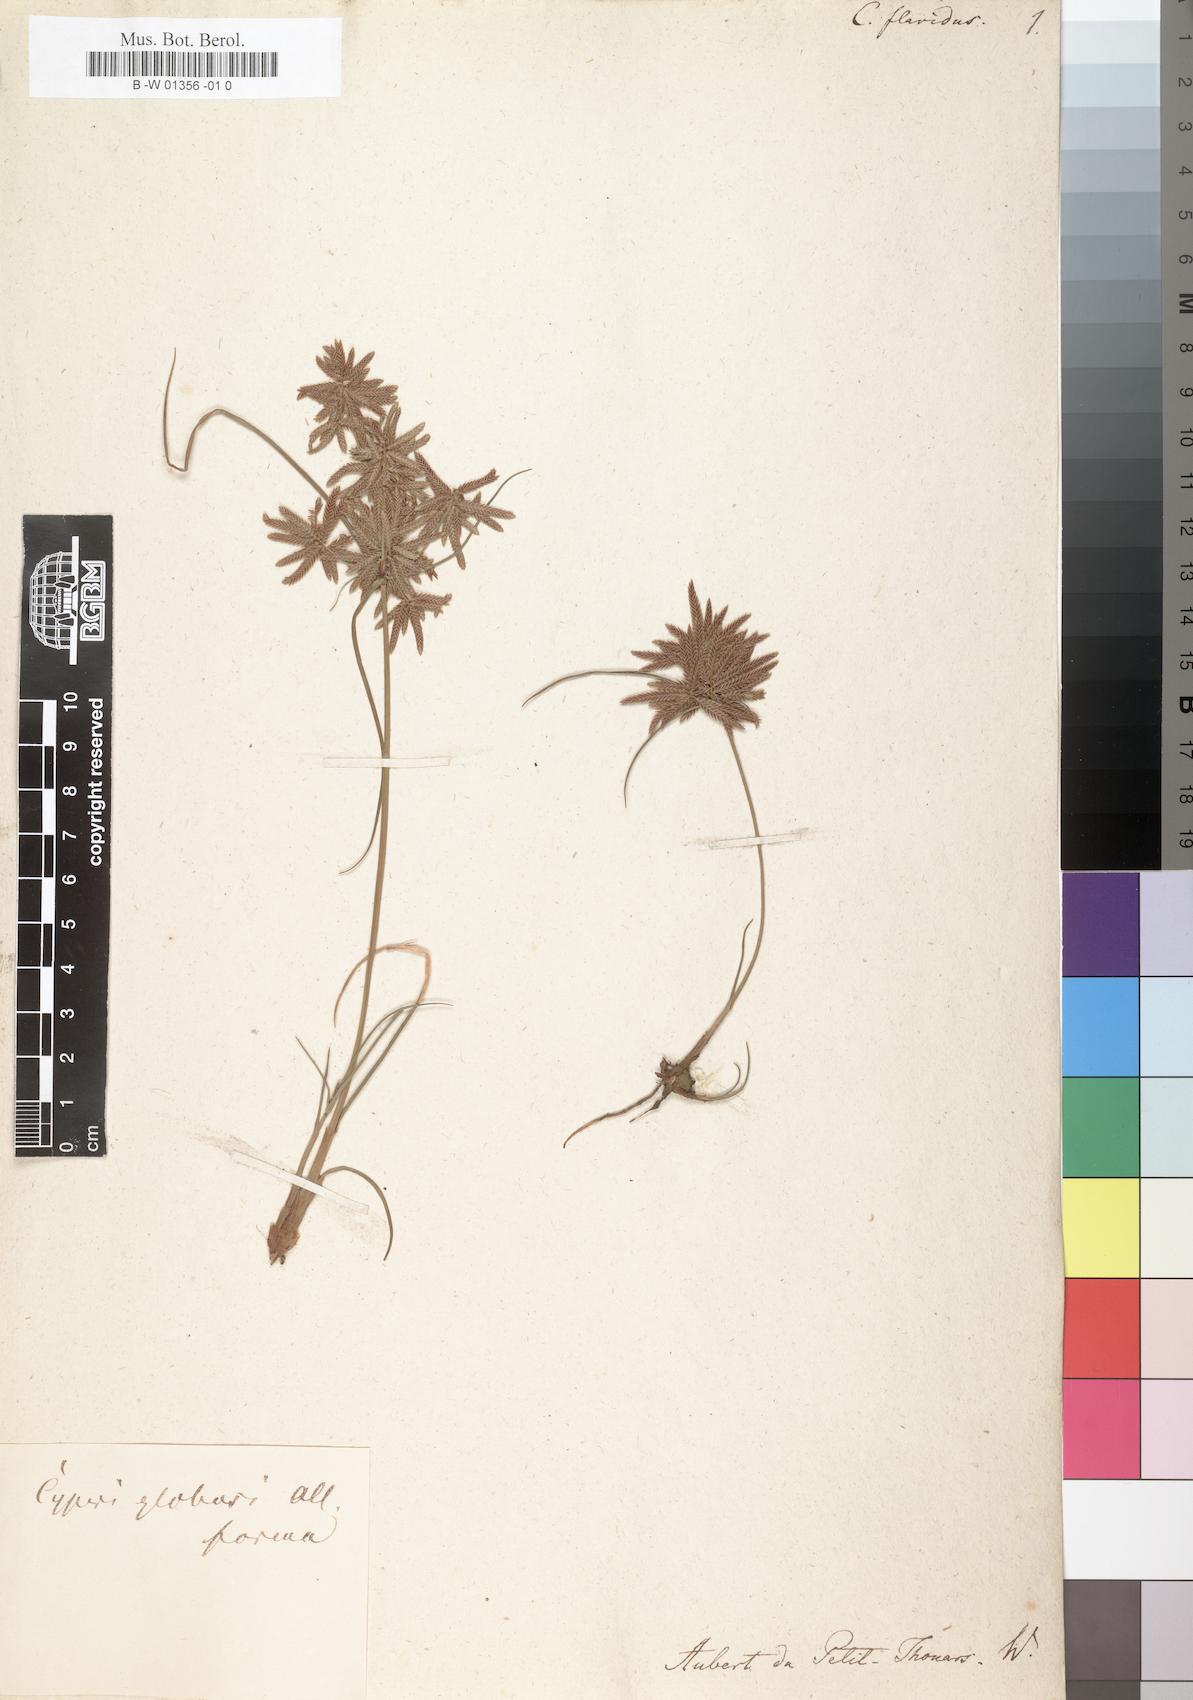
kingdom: Plantae
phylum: Tracheophyta
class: Liliopsida
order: Poales
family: Cyperaceae
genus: Cyperus
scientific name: Cyperus flavidus
